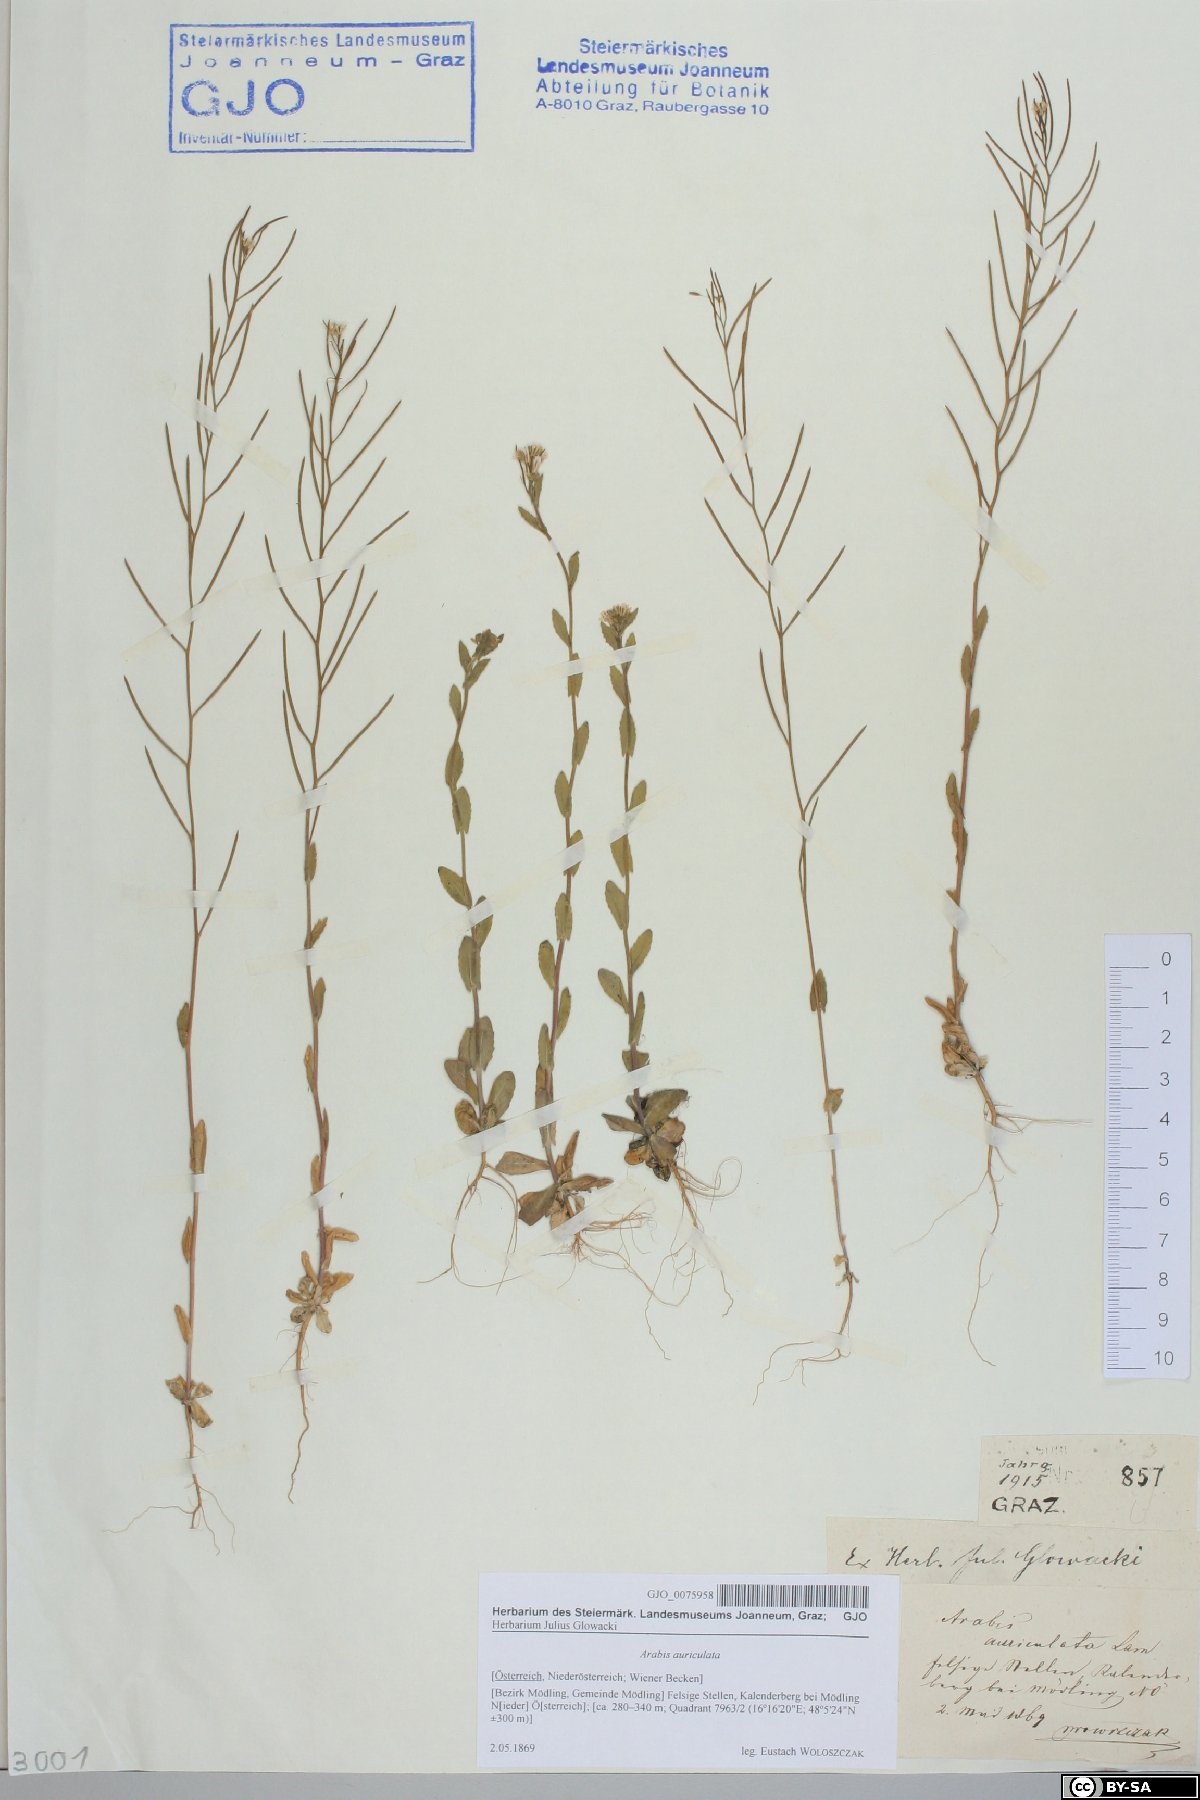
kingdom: Plantae
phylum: Tracheophyta
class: Magnoliopsida
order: Brassicales
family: Brassicaceae
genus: Arabis
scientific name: Arabis auriculata
